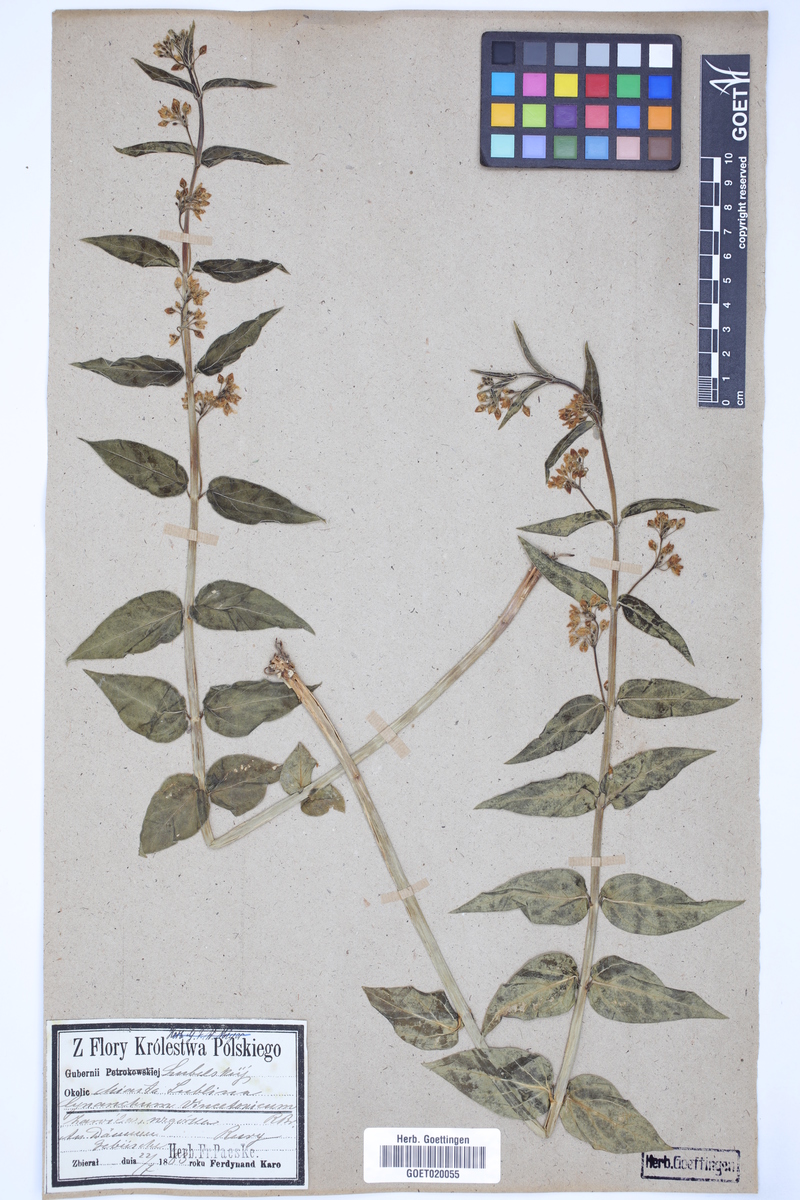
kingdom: Plantae
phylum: Tracheophyta
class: Magnoliopsida
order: Gentianales
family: Apocynaceae
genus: Vincetoxicum
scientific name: Vincetoxicum hirundinaria
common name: White swallowwort
